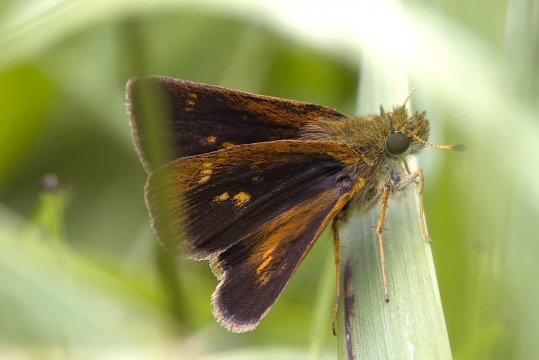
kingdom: Animalia
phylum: Arthropoda
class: Insecta
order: Lepidoptera
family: Hesperiidae
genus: Poanes
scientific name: Poanes massasoit
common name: Mulberry Wing
